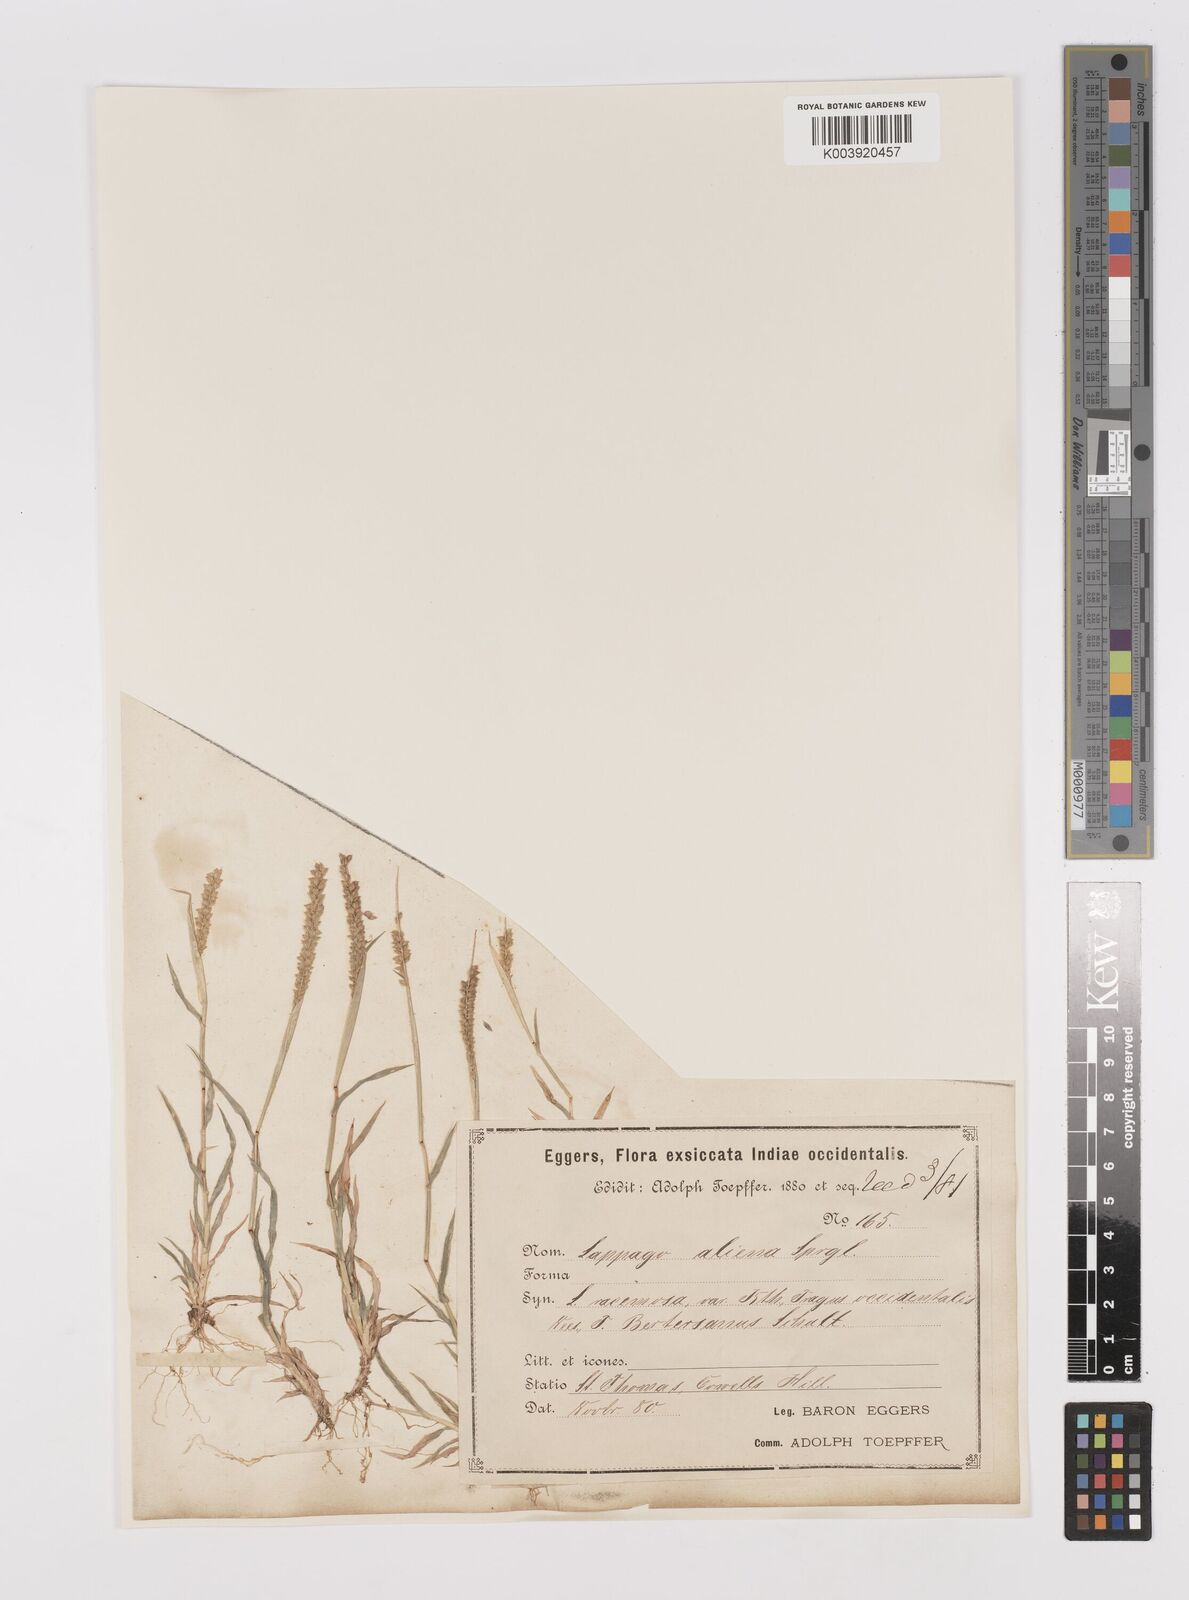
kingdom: Plantae
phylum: Tracheophyta
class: Liliopsida
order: Poales
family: Poaceae
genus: Tragus
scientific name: Tragus berteronianus
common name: African bur-grass
